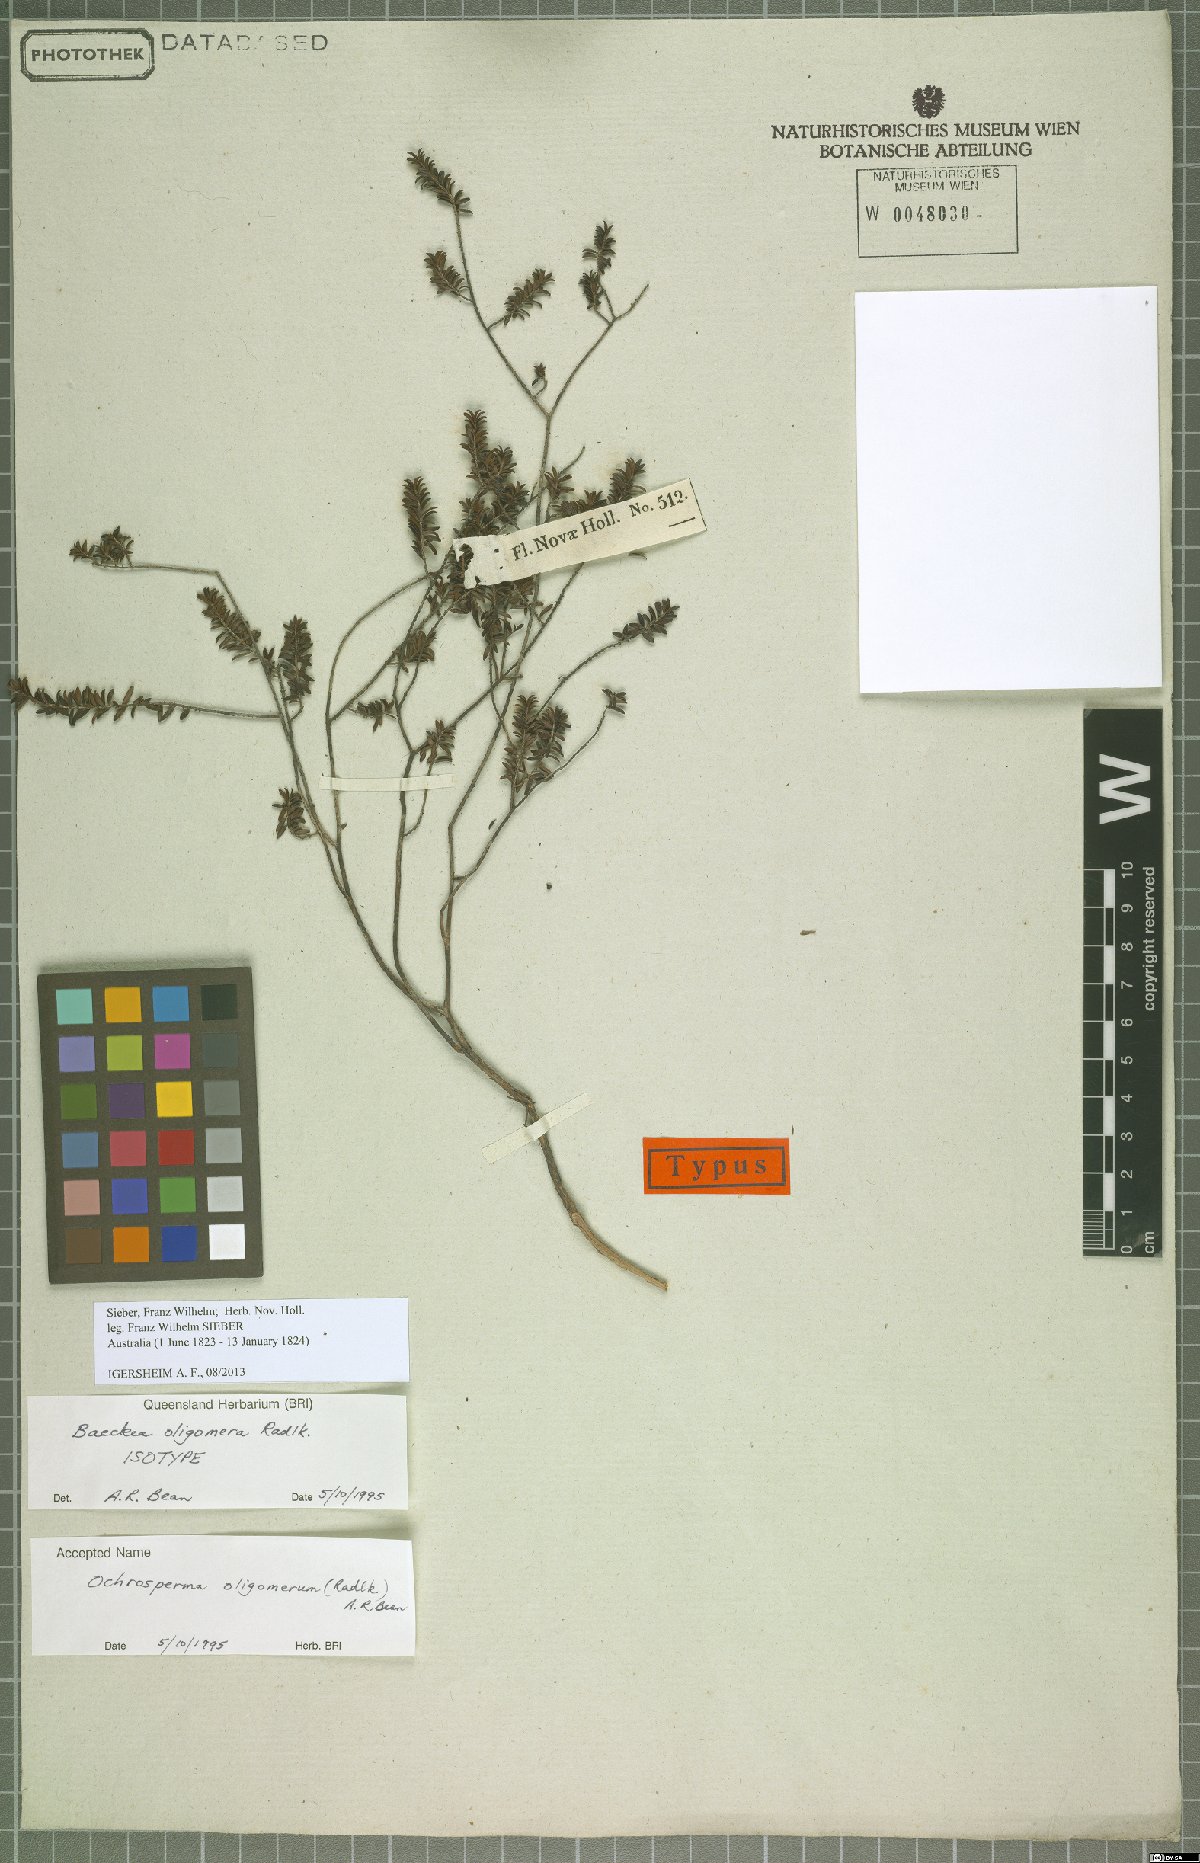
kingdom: Plantae
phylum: Tracheophyta
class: Magnoliopsida
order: Myrtales
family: Myrtaceae
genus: Ochrosperma
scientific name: Ochrosperma oligomerum
